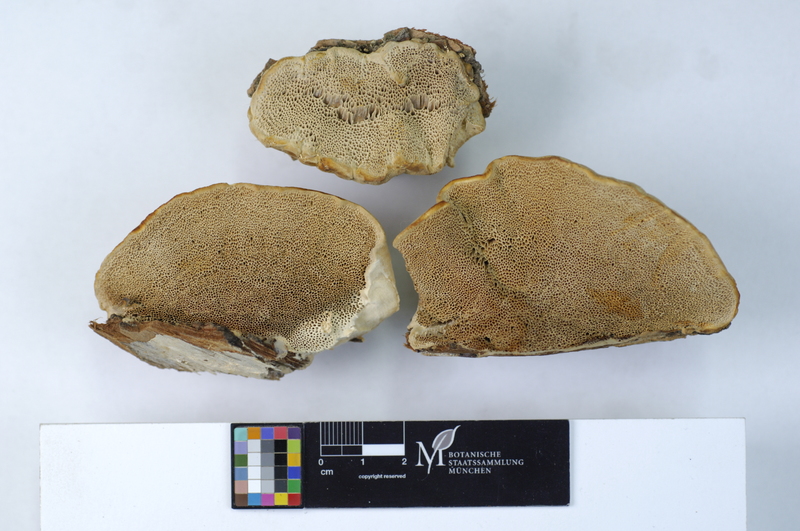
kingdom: Fungi
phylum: Basidiomycota
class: Agaricomycetes
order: Polyporales
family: Polyporaceae
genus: Trametes
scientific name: Trametes suaveolens
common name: Fragrant bracket
